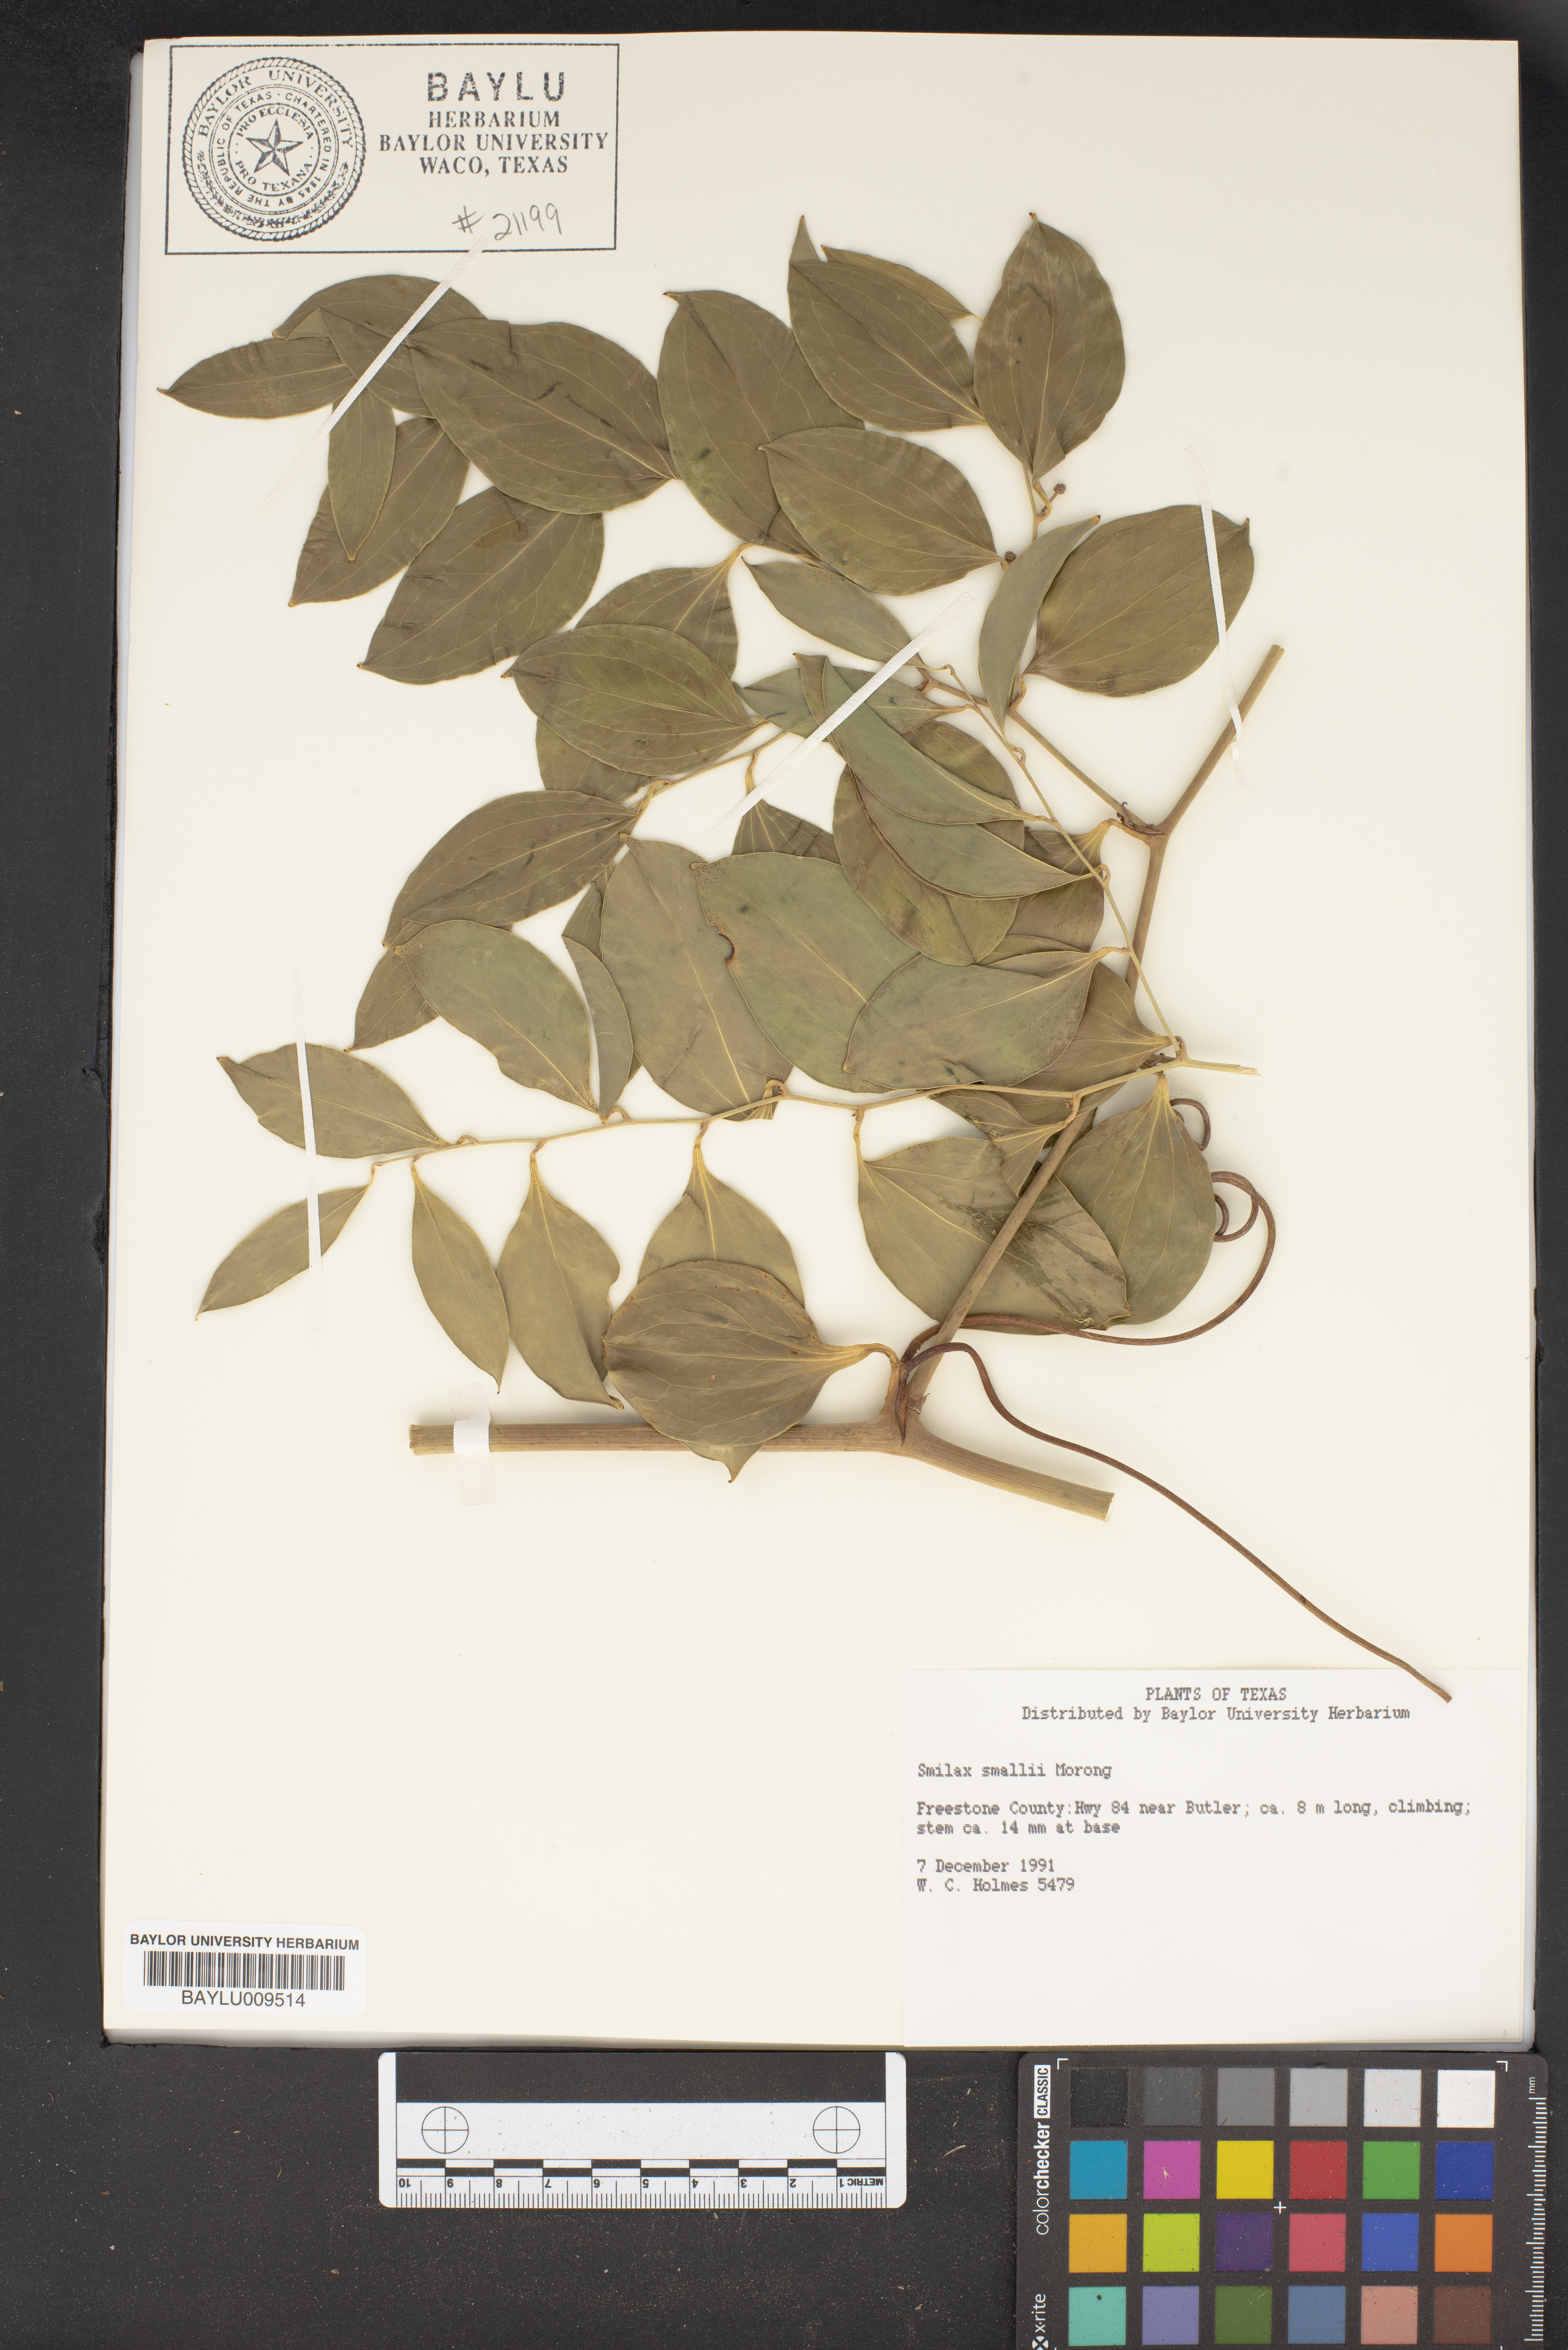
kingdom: Plantae
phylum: Tracheophyta
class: Liliopsida
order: Liliales
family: Smilacaceae
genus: Smilax
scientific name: Smilax maritima
